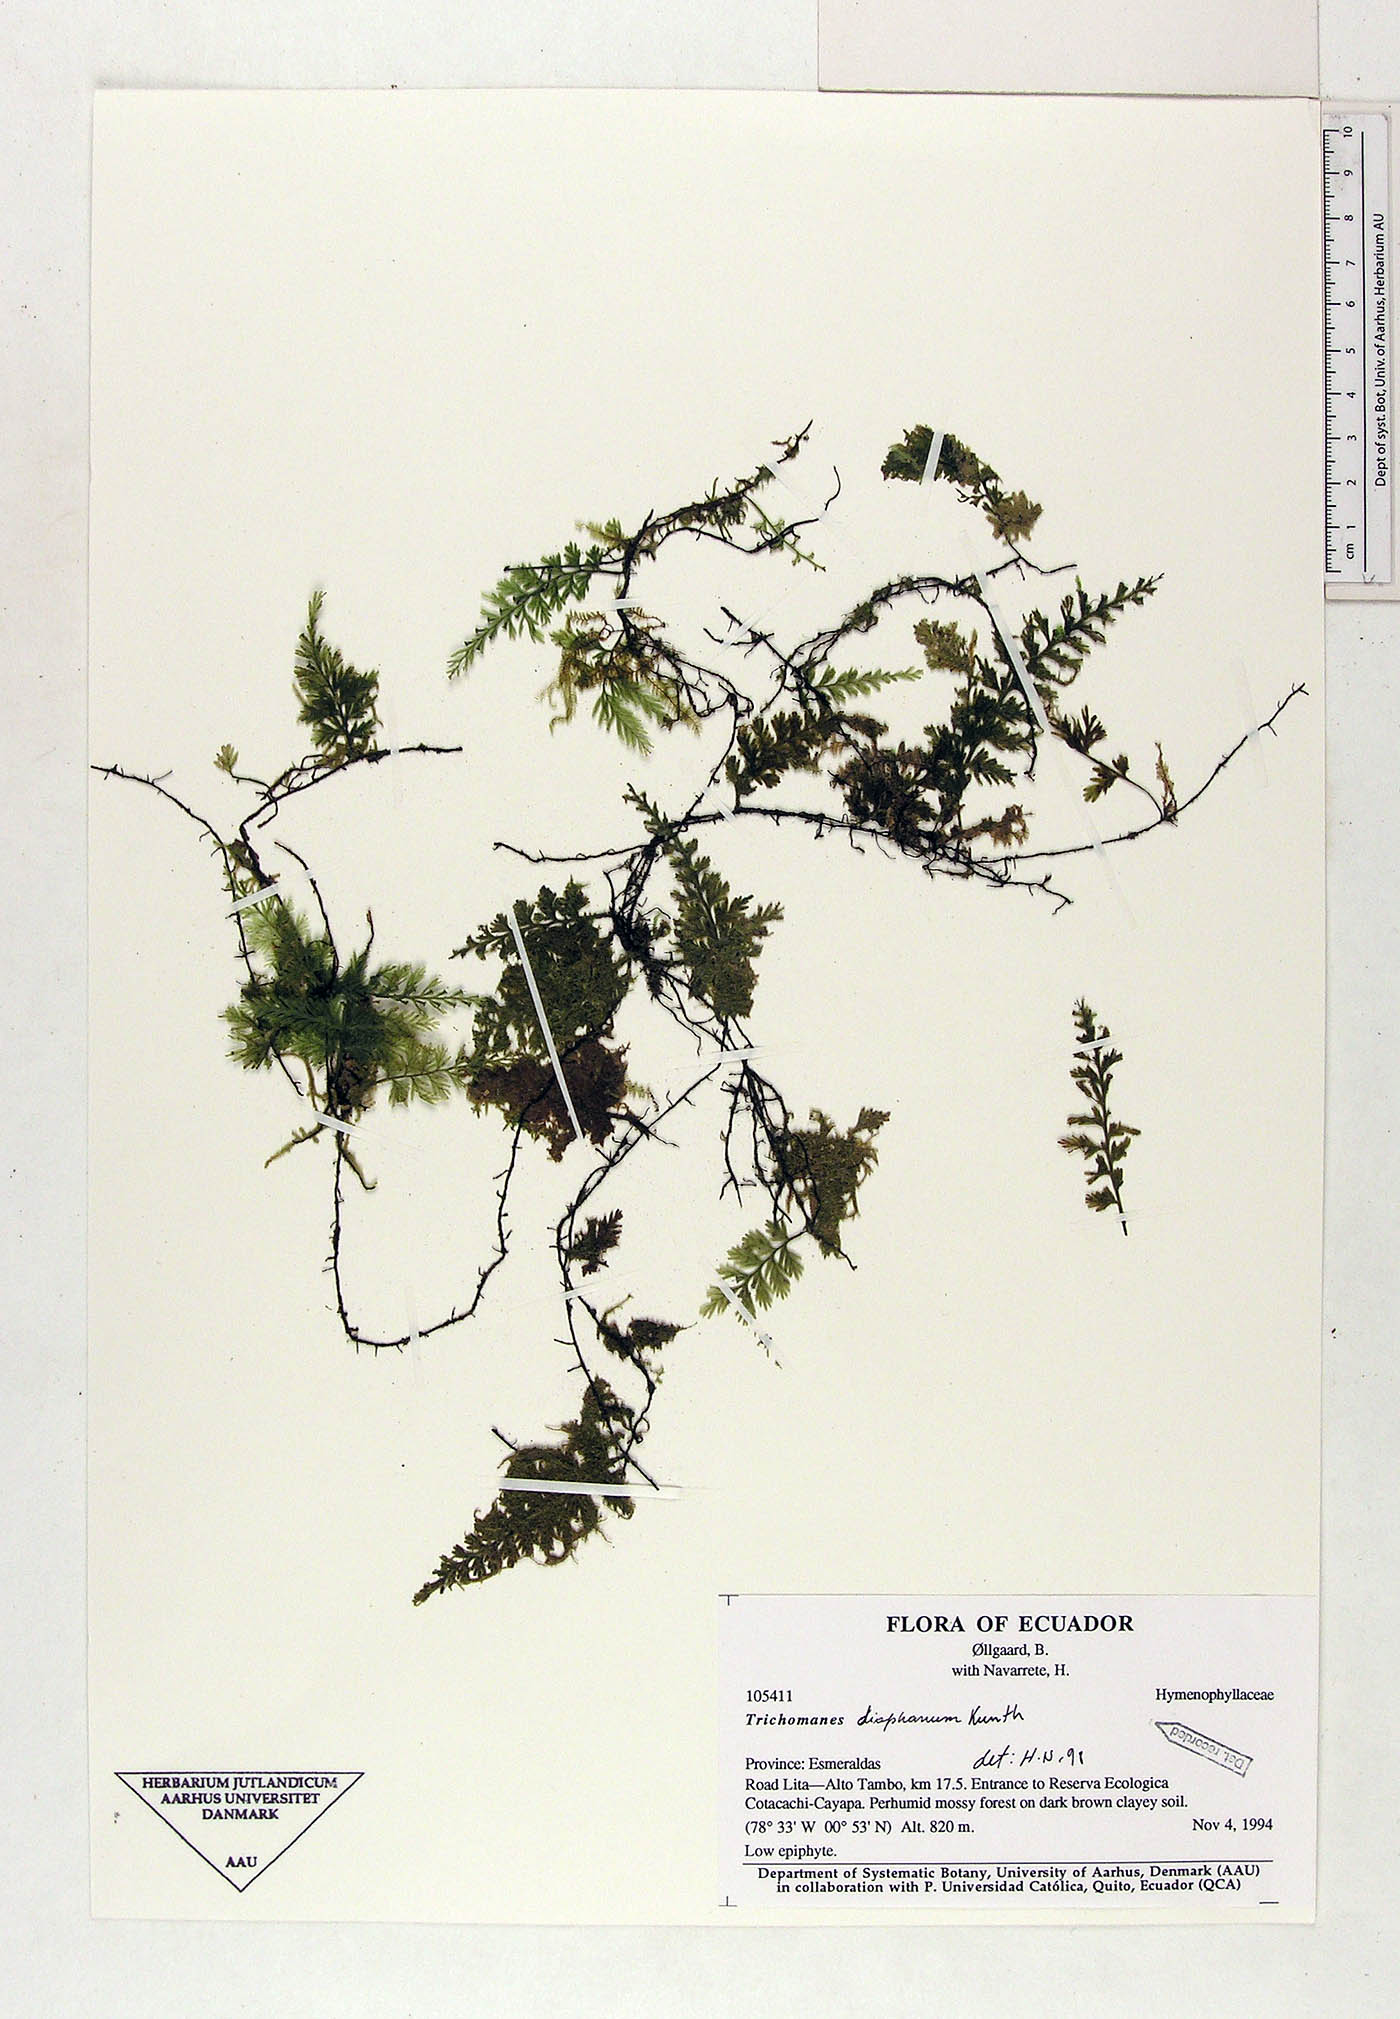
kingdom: Plantae
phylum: Tracheophyta
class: Polypodiopsida
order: Hymenophyllales
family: Hymenophyllaceae
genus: Polyphlebium
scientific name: Polyphlebium diaphanum
